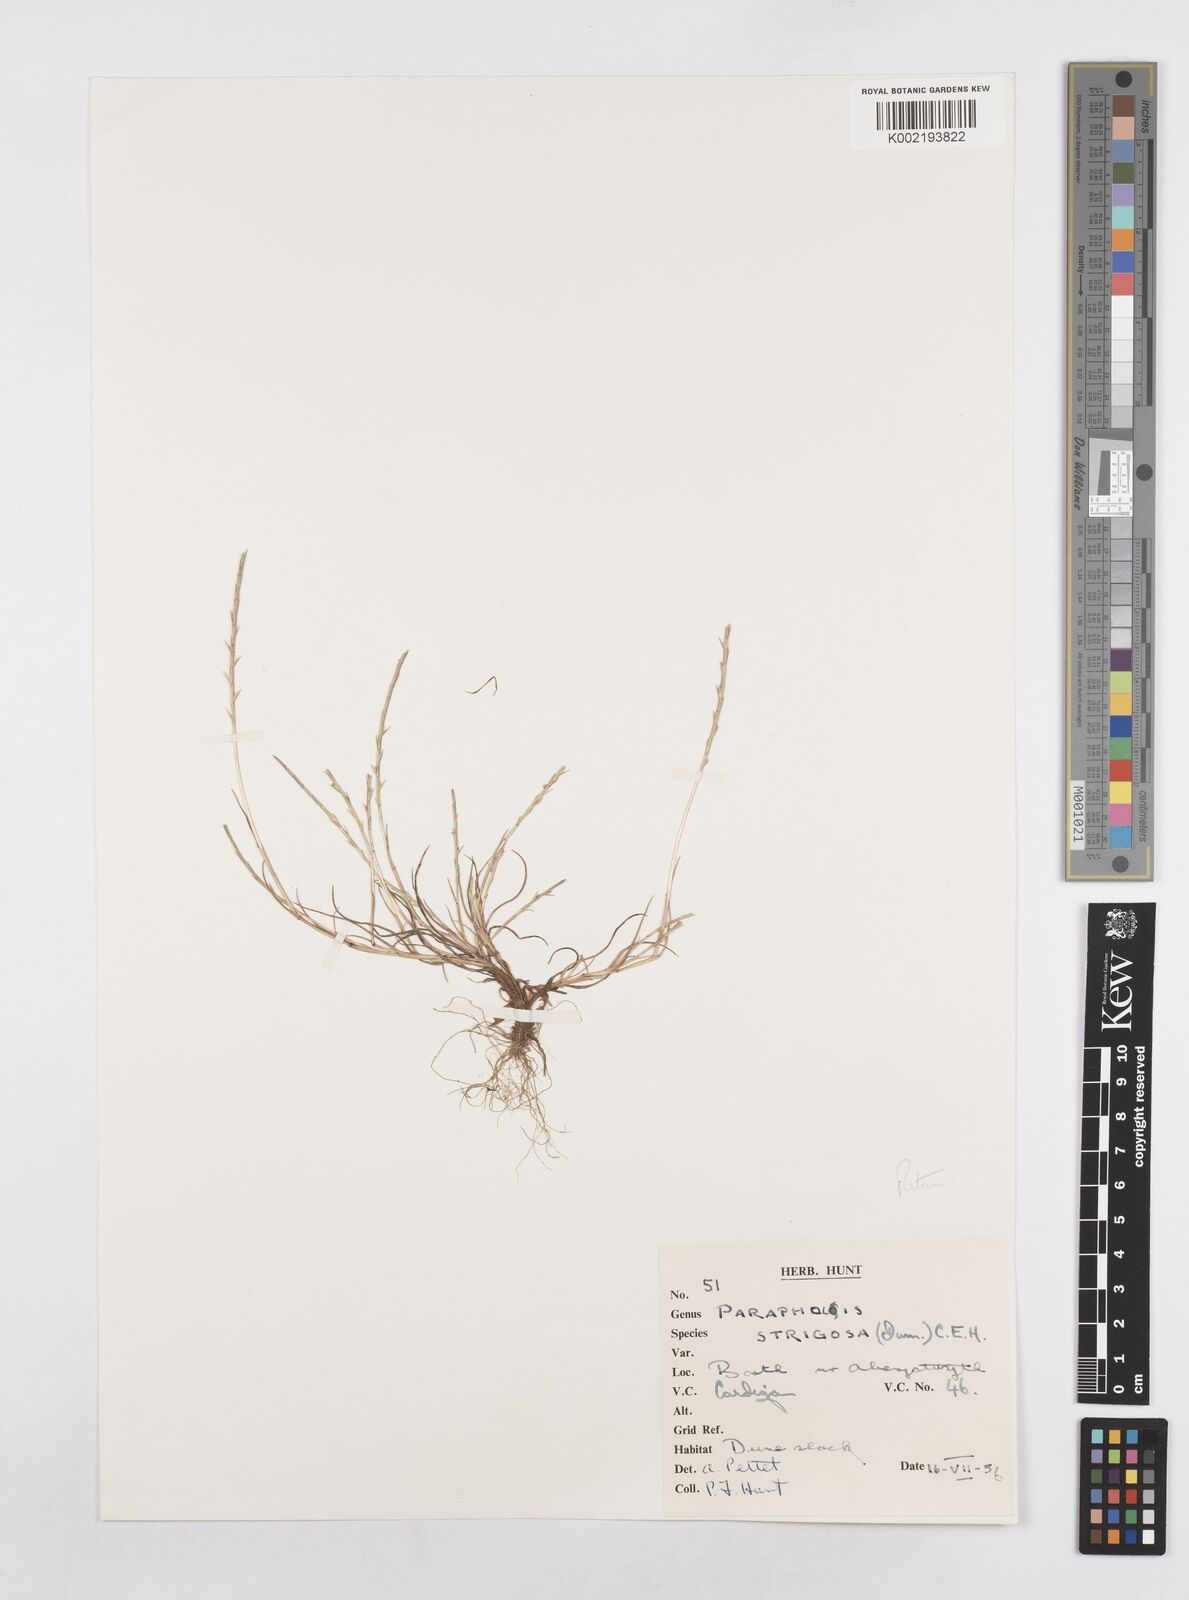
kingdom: Plantae
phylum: Tracheophyta
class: Liliopsida
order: Poales
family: Poaceae
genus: Parapholis
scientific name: Parapholis strigosa
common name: Hard-grass
